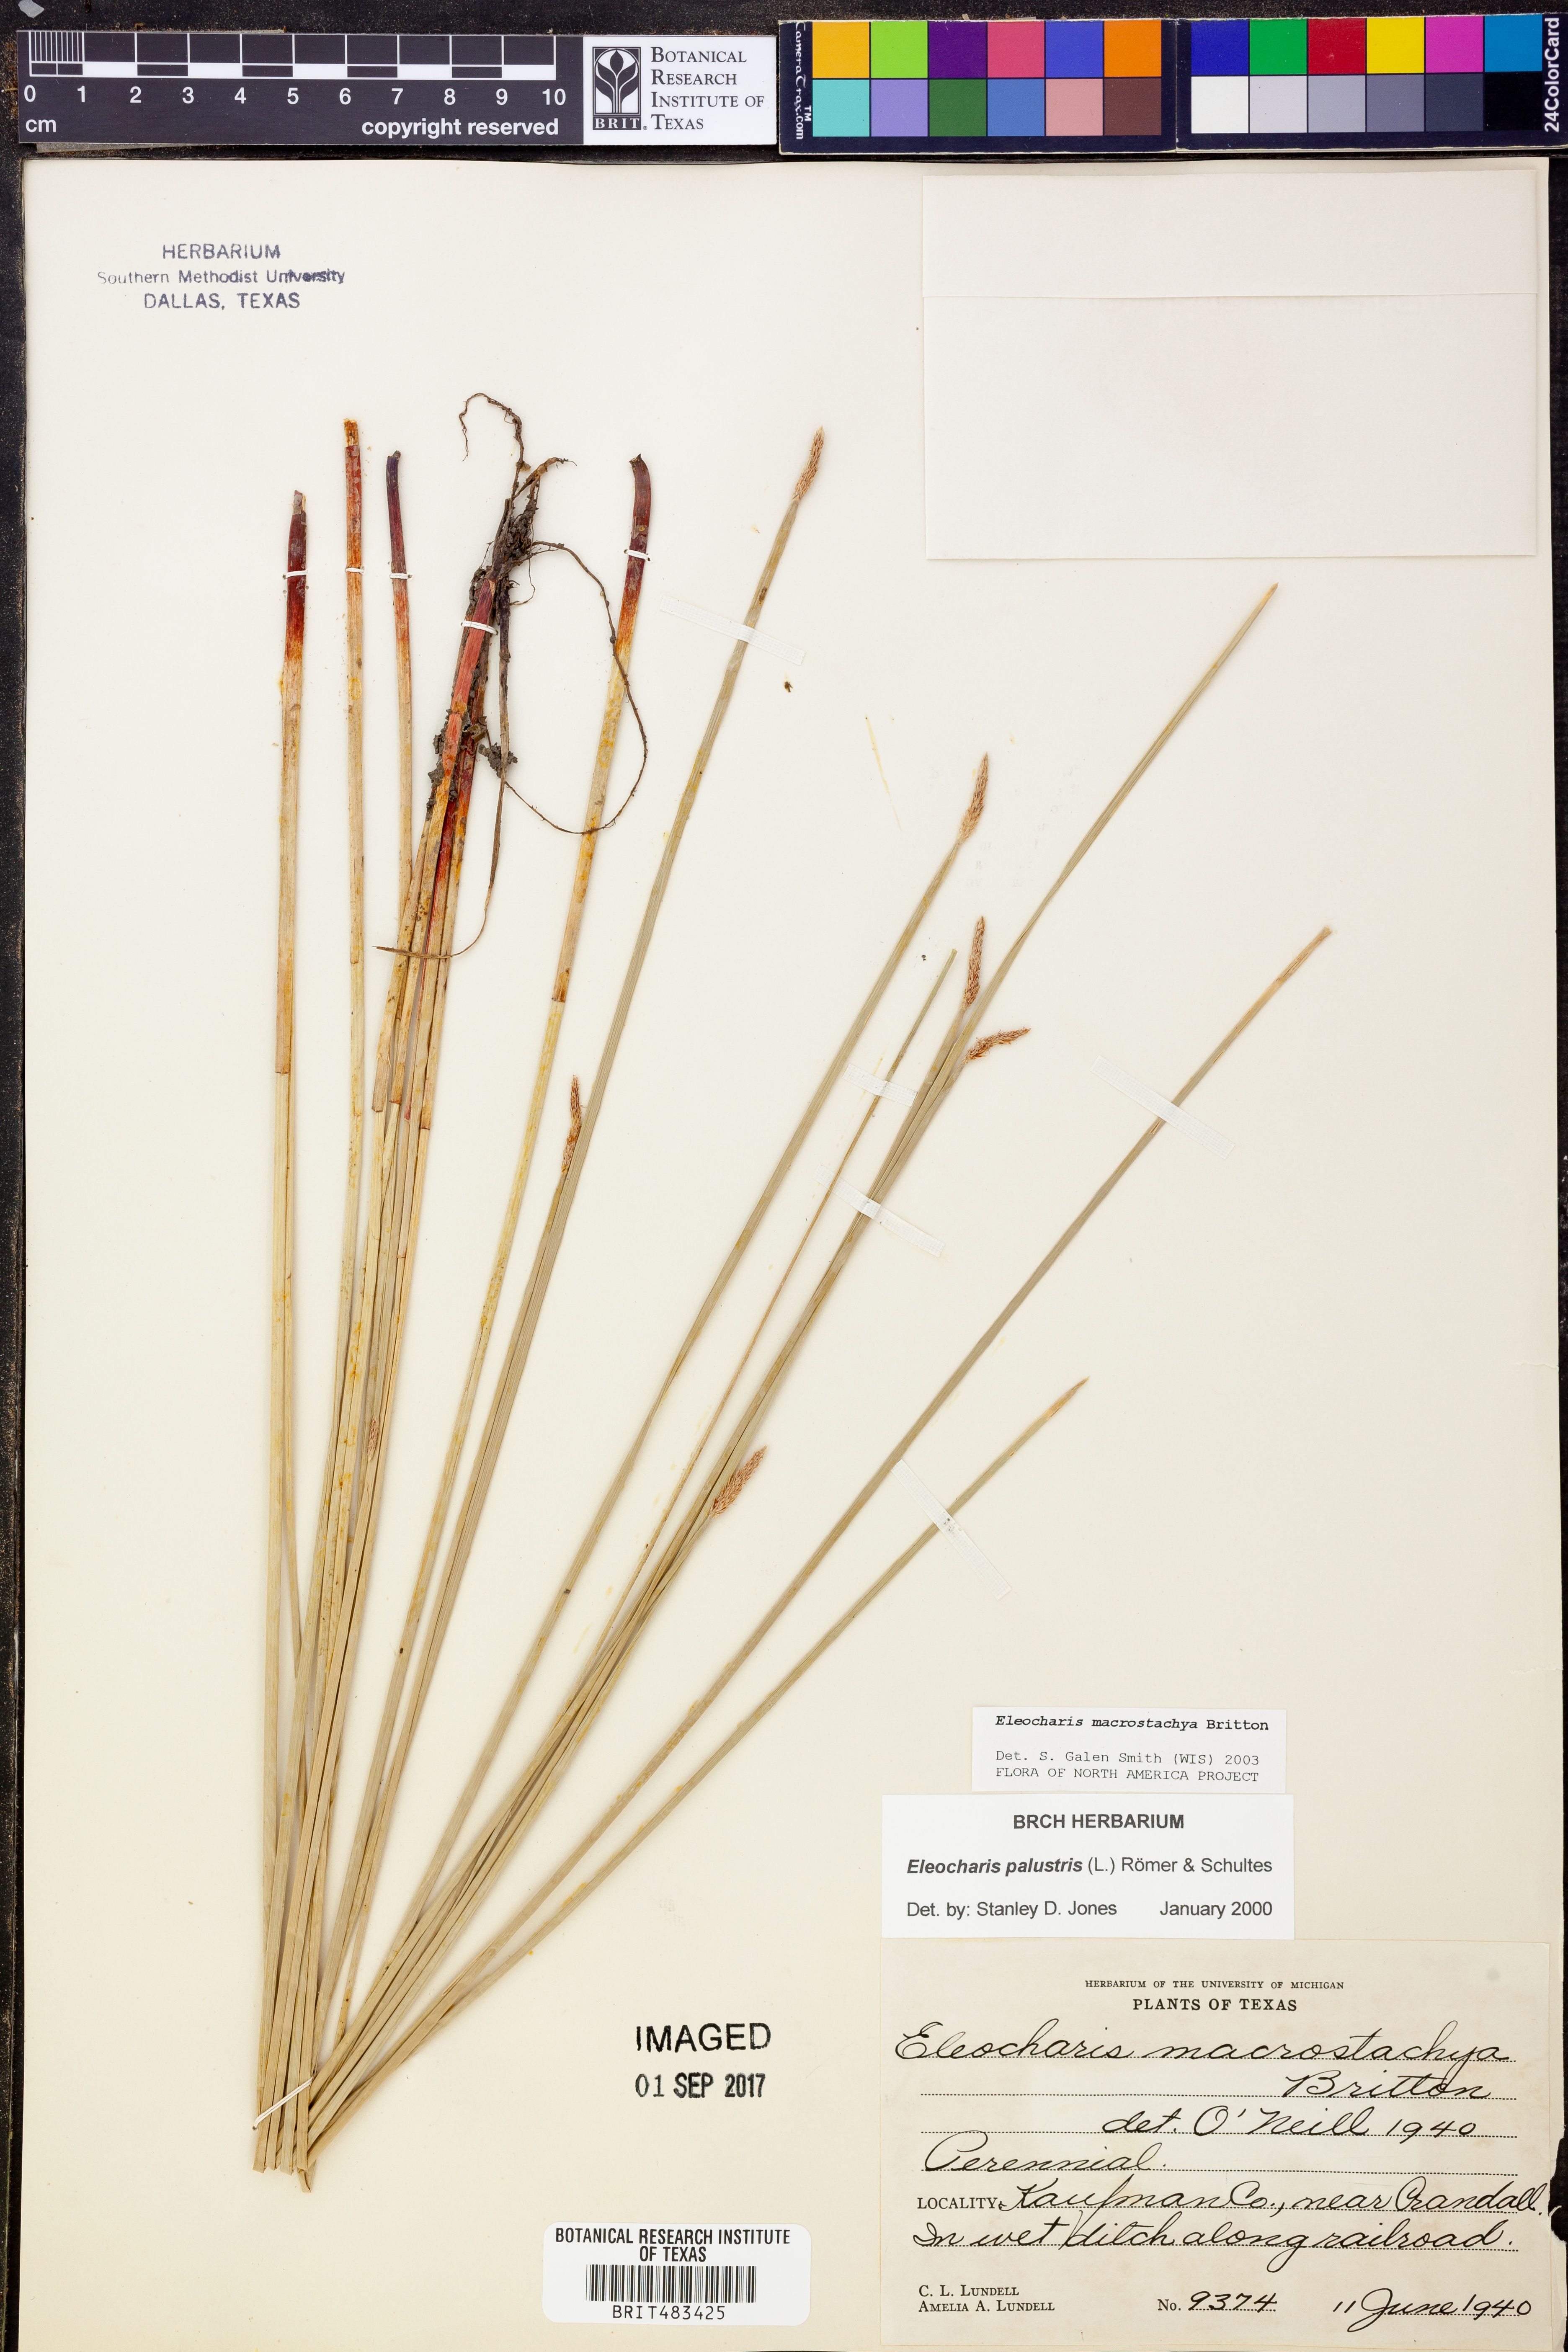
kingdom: Plantae
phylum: Tracheophyta
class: Liliopsida
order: Poales
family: Cyperaceae
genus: Eleocharis
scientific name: Eleocharis macrostachya
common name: Pale spikerush
